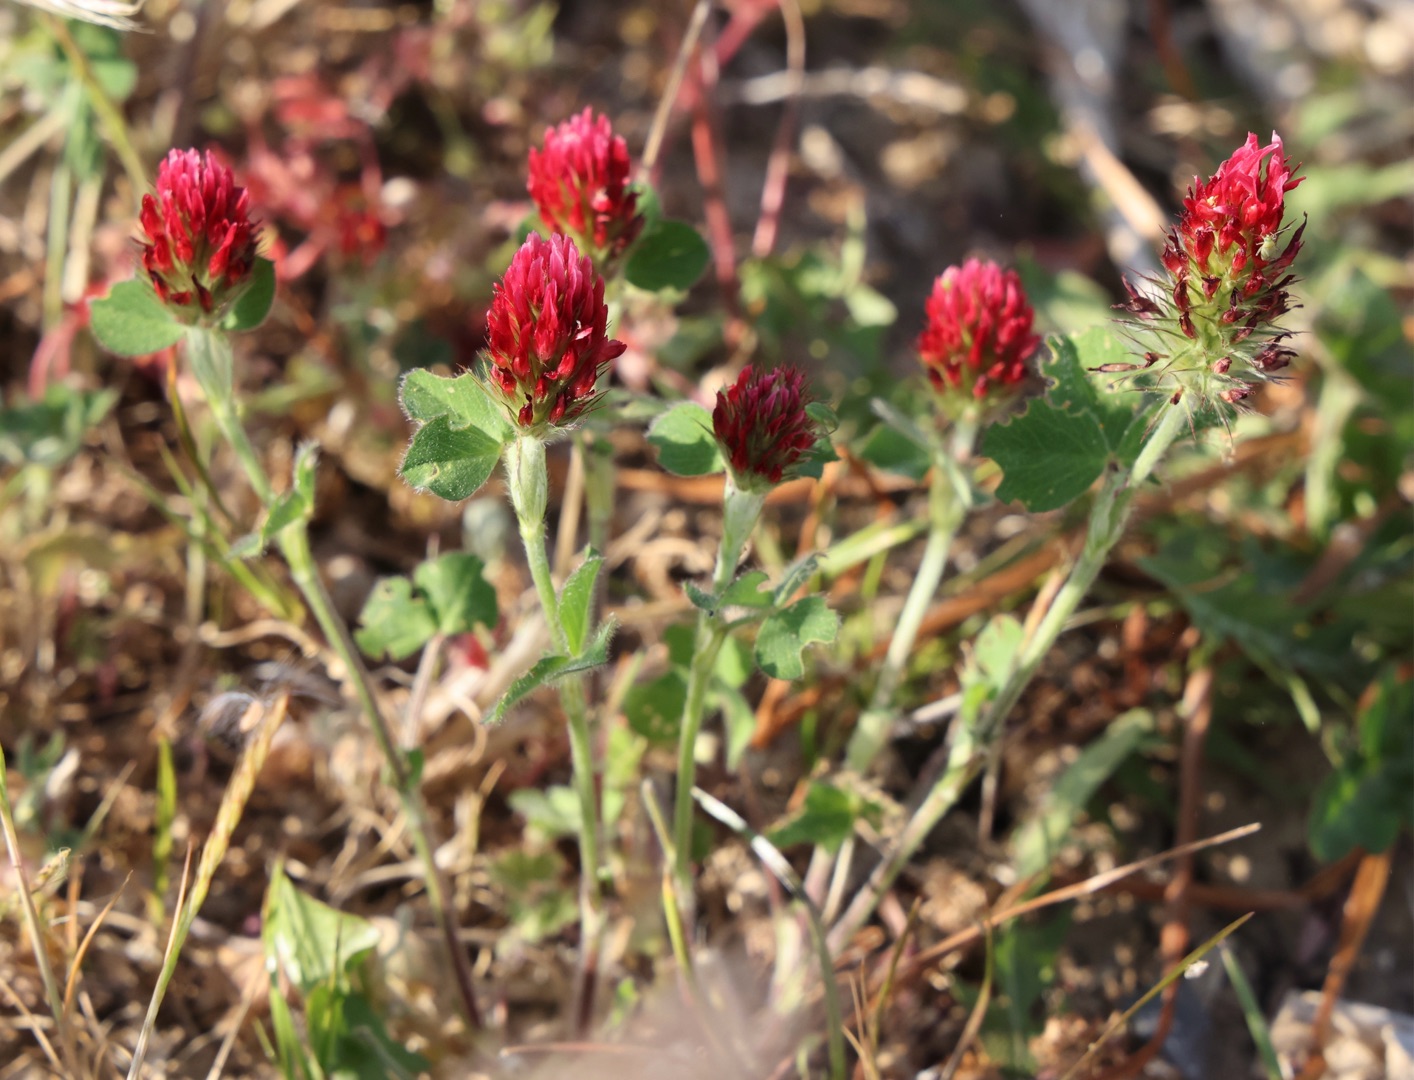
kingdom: Plantae
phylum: Tracheophyta
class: Magnoliopsida
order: Fabales
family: Fabaceae
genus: Trifolium
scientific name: Trifolium incarnatum
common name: Blod-kløver
